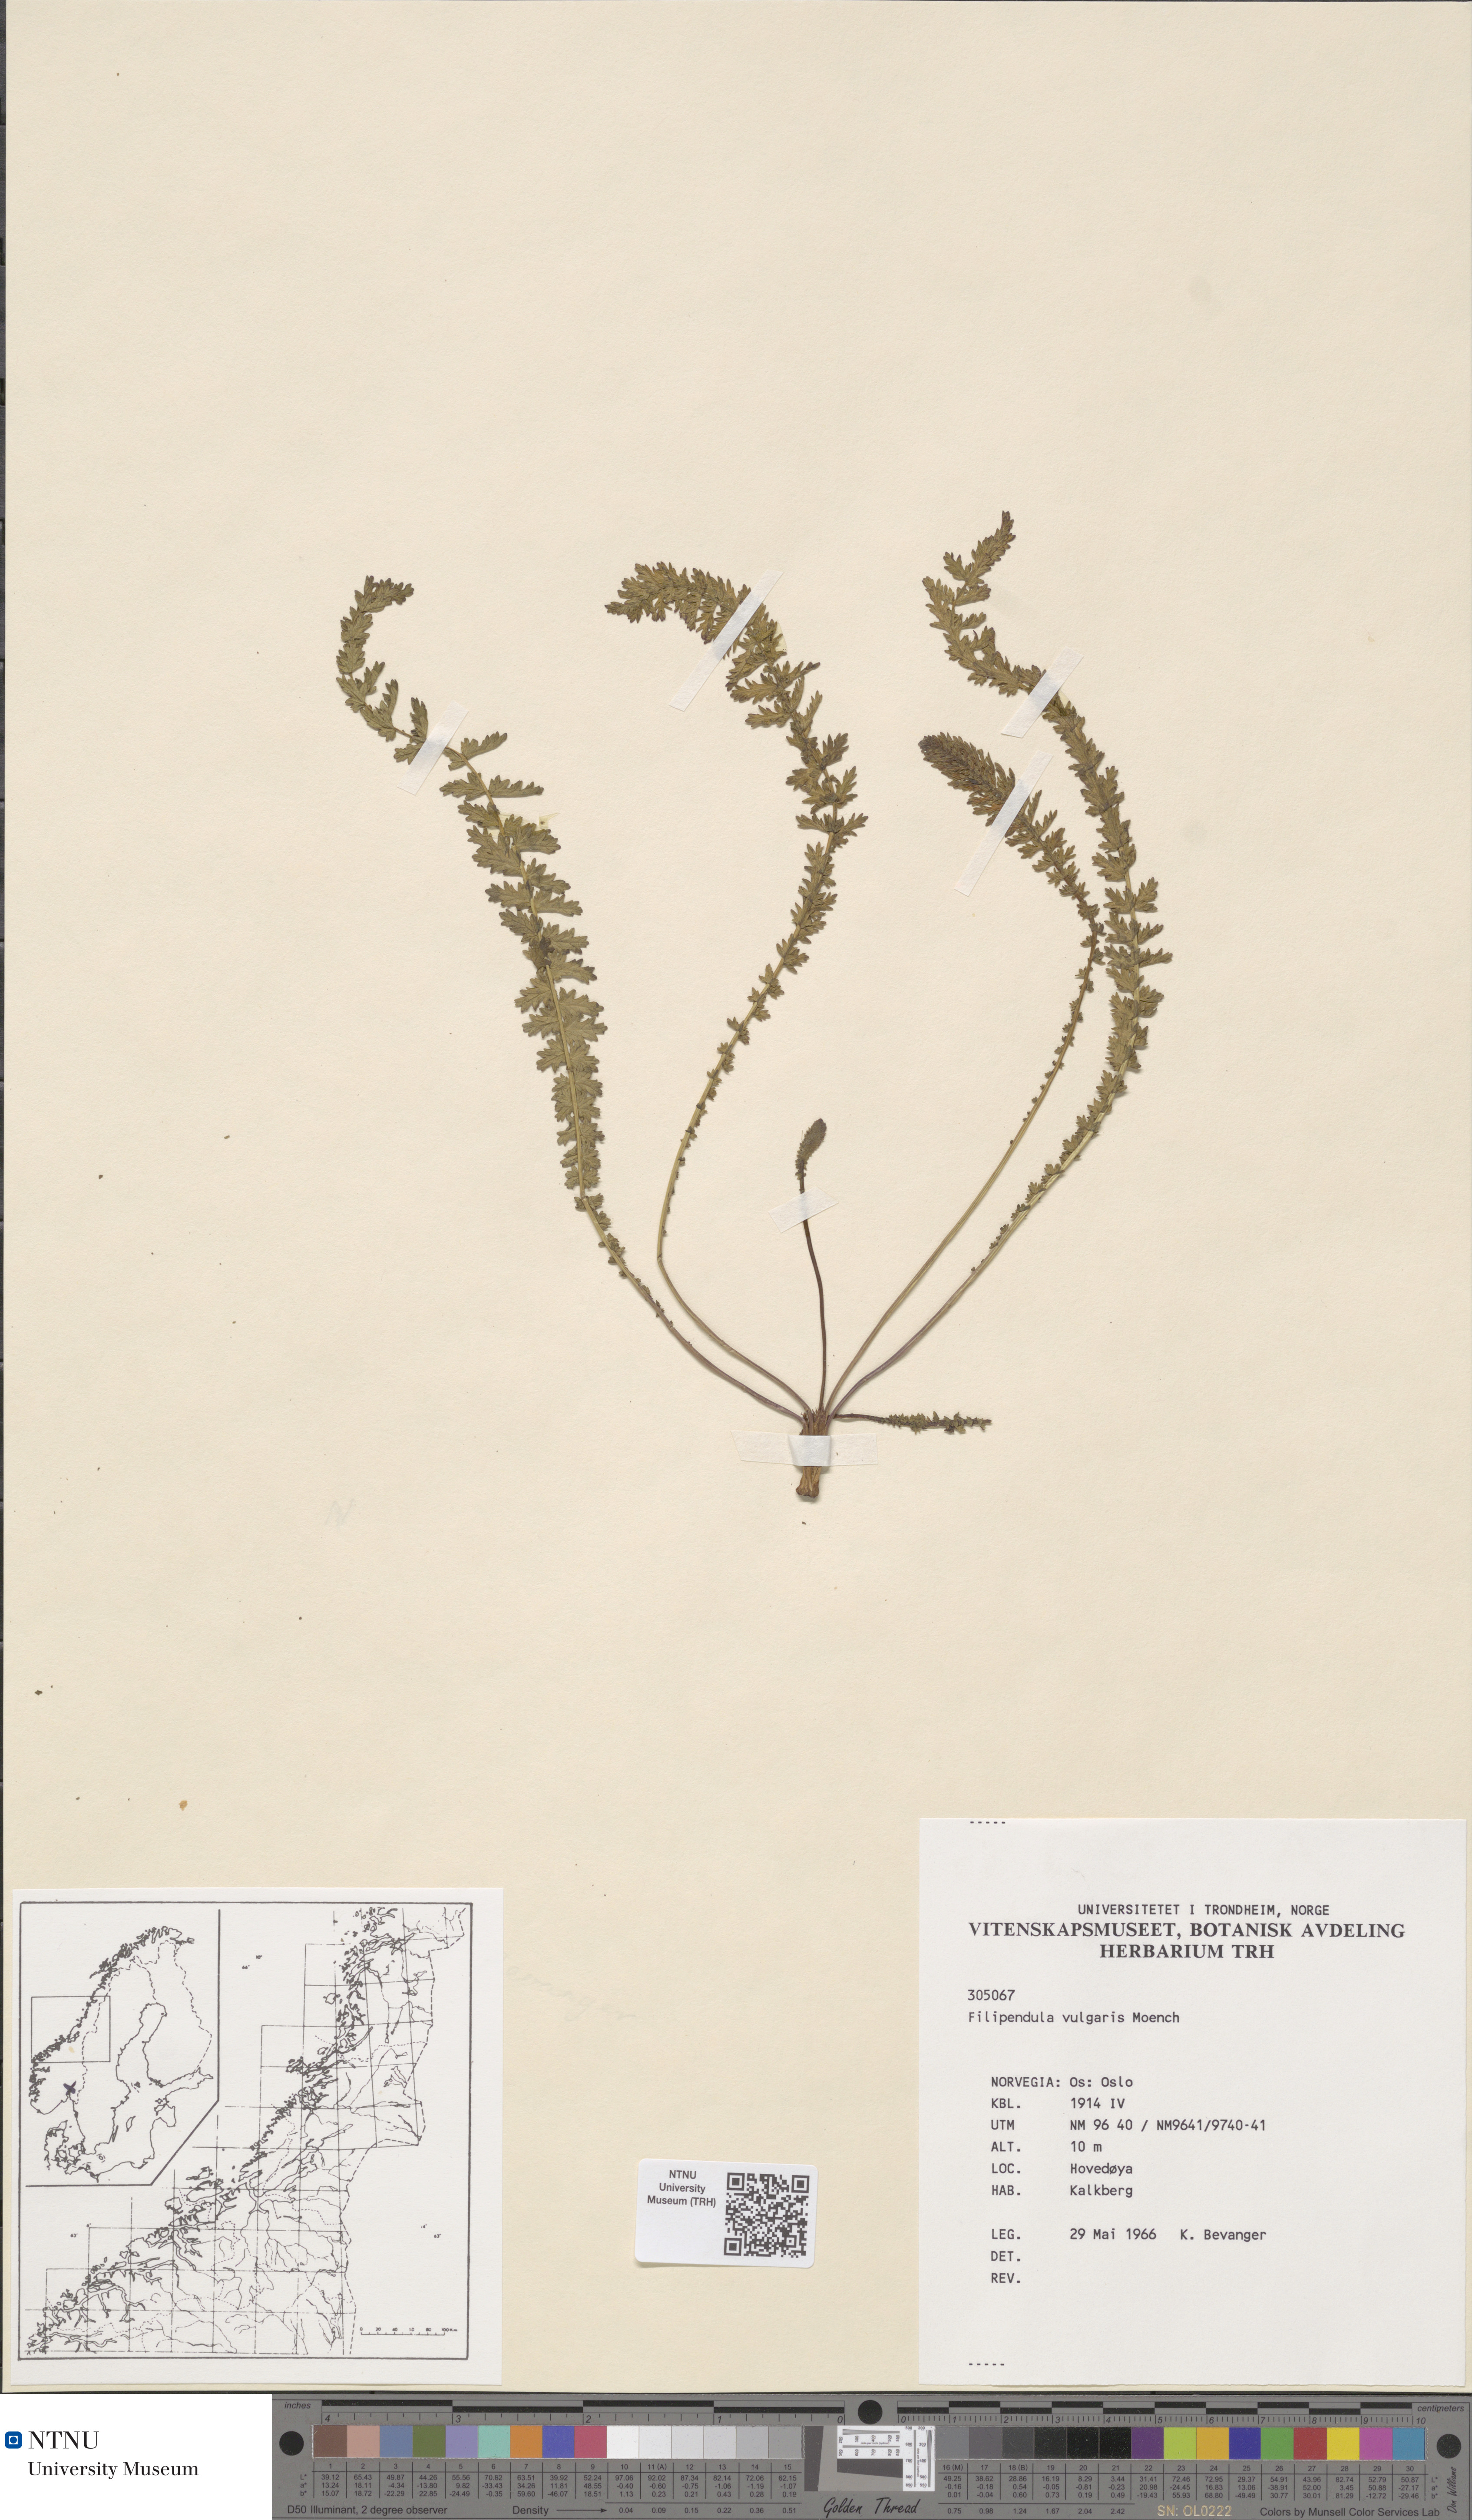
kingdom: Plantae
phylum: Tracheophyta
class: Magnoliopsida
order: Rosales
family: Rosaceae
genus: Filipendula
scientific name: Filipendula vulgaris
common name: Dropwort
